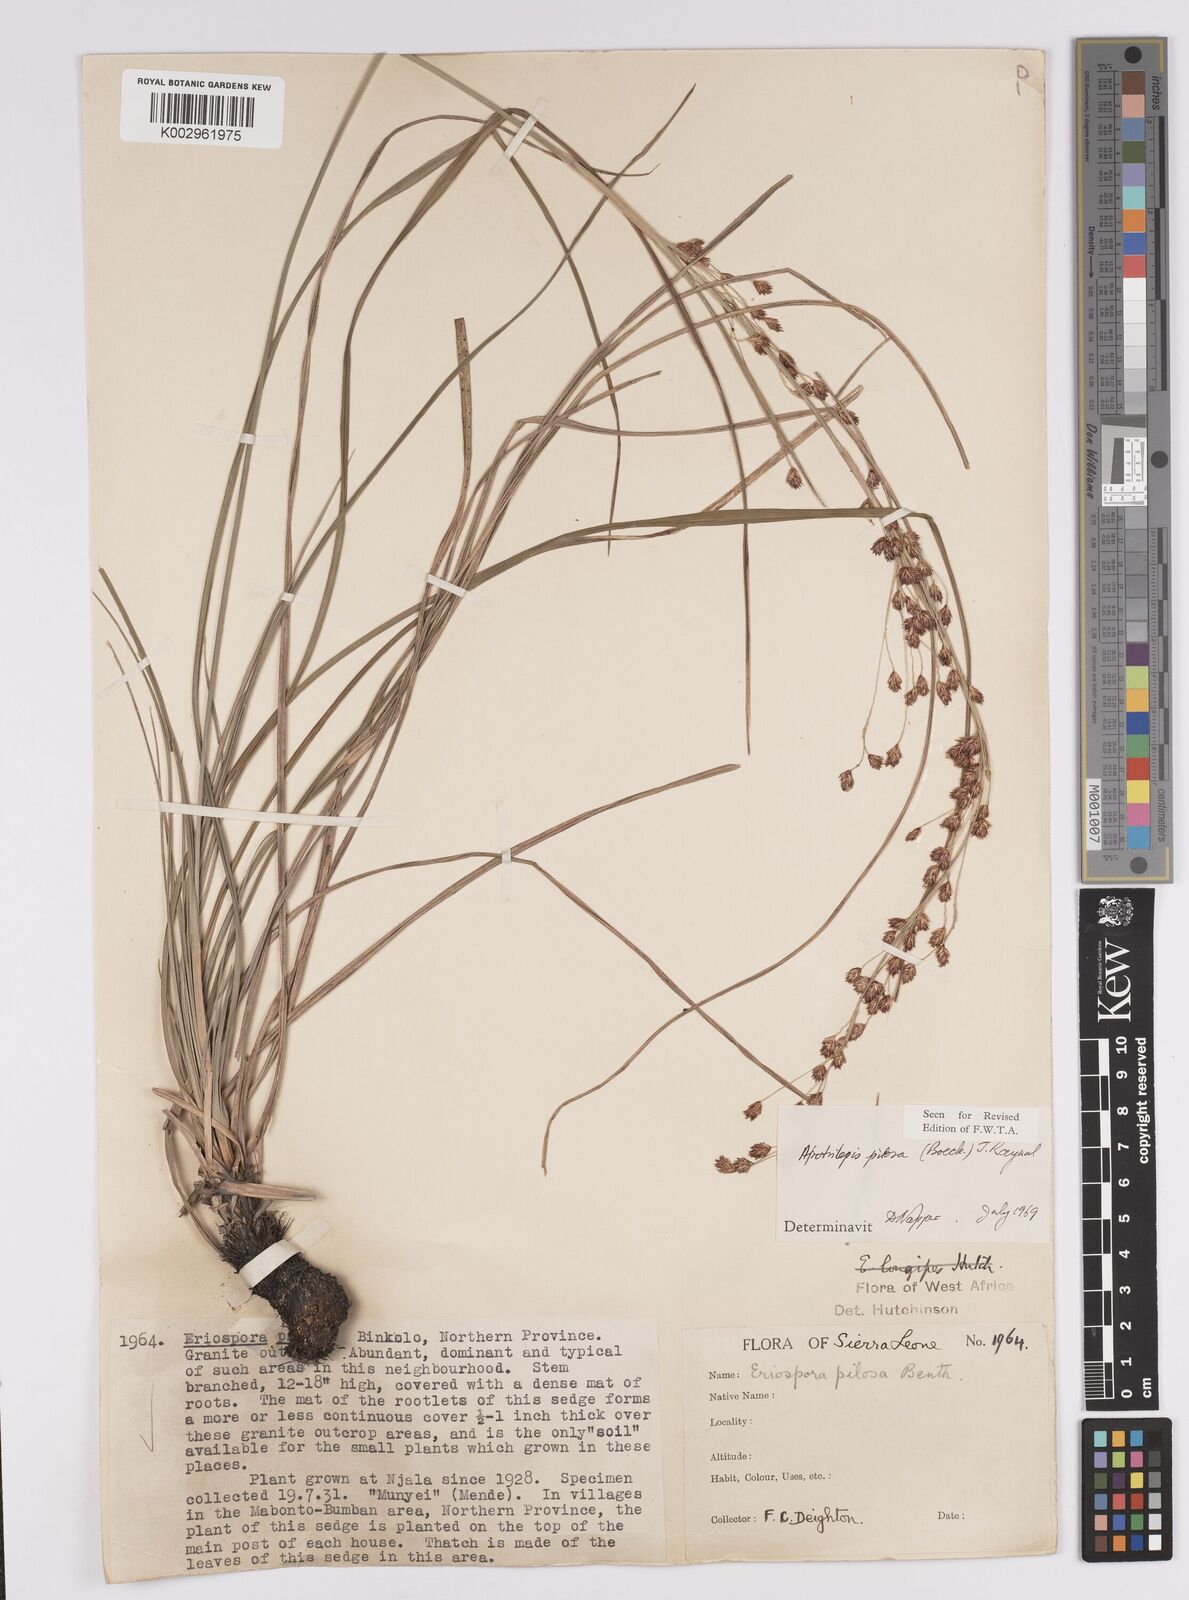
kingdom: Plantae
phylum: Tracheophyta
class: Liliopsida
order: Poales
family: Cyperaceae
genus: Afrotrilepis
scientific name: Afrotrilepis pilosa
